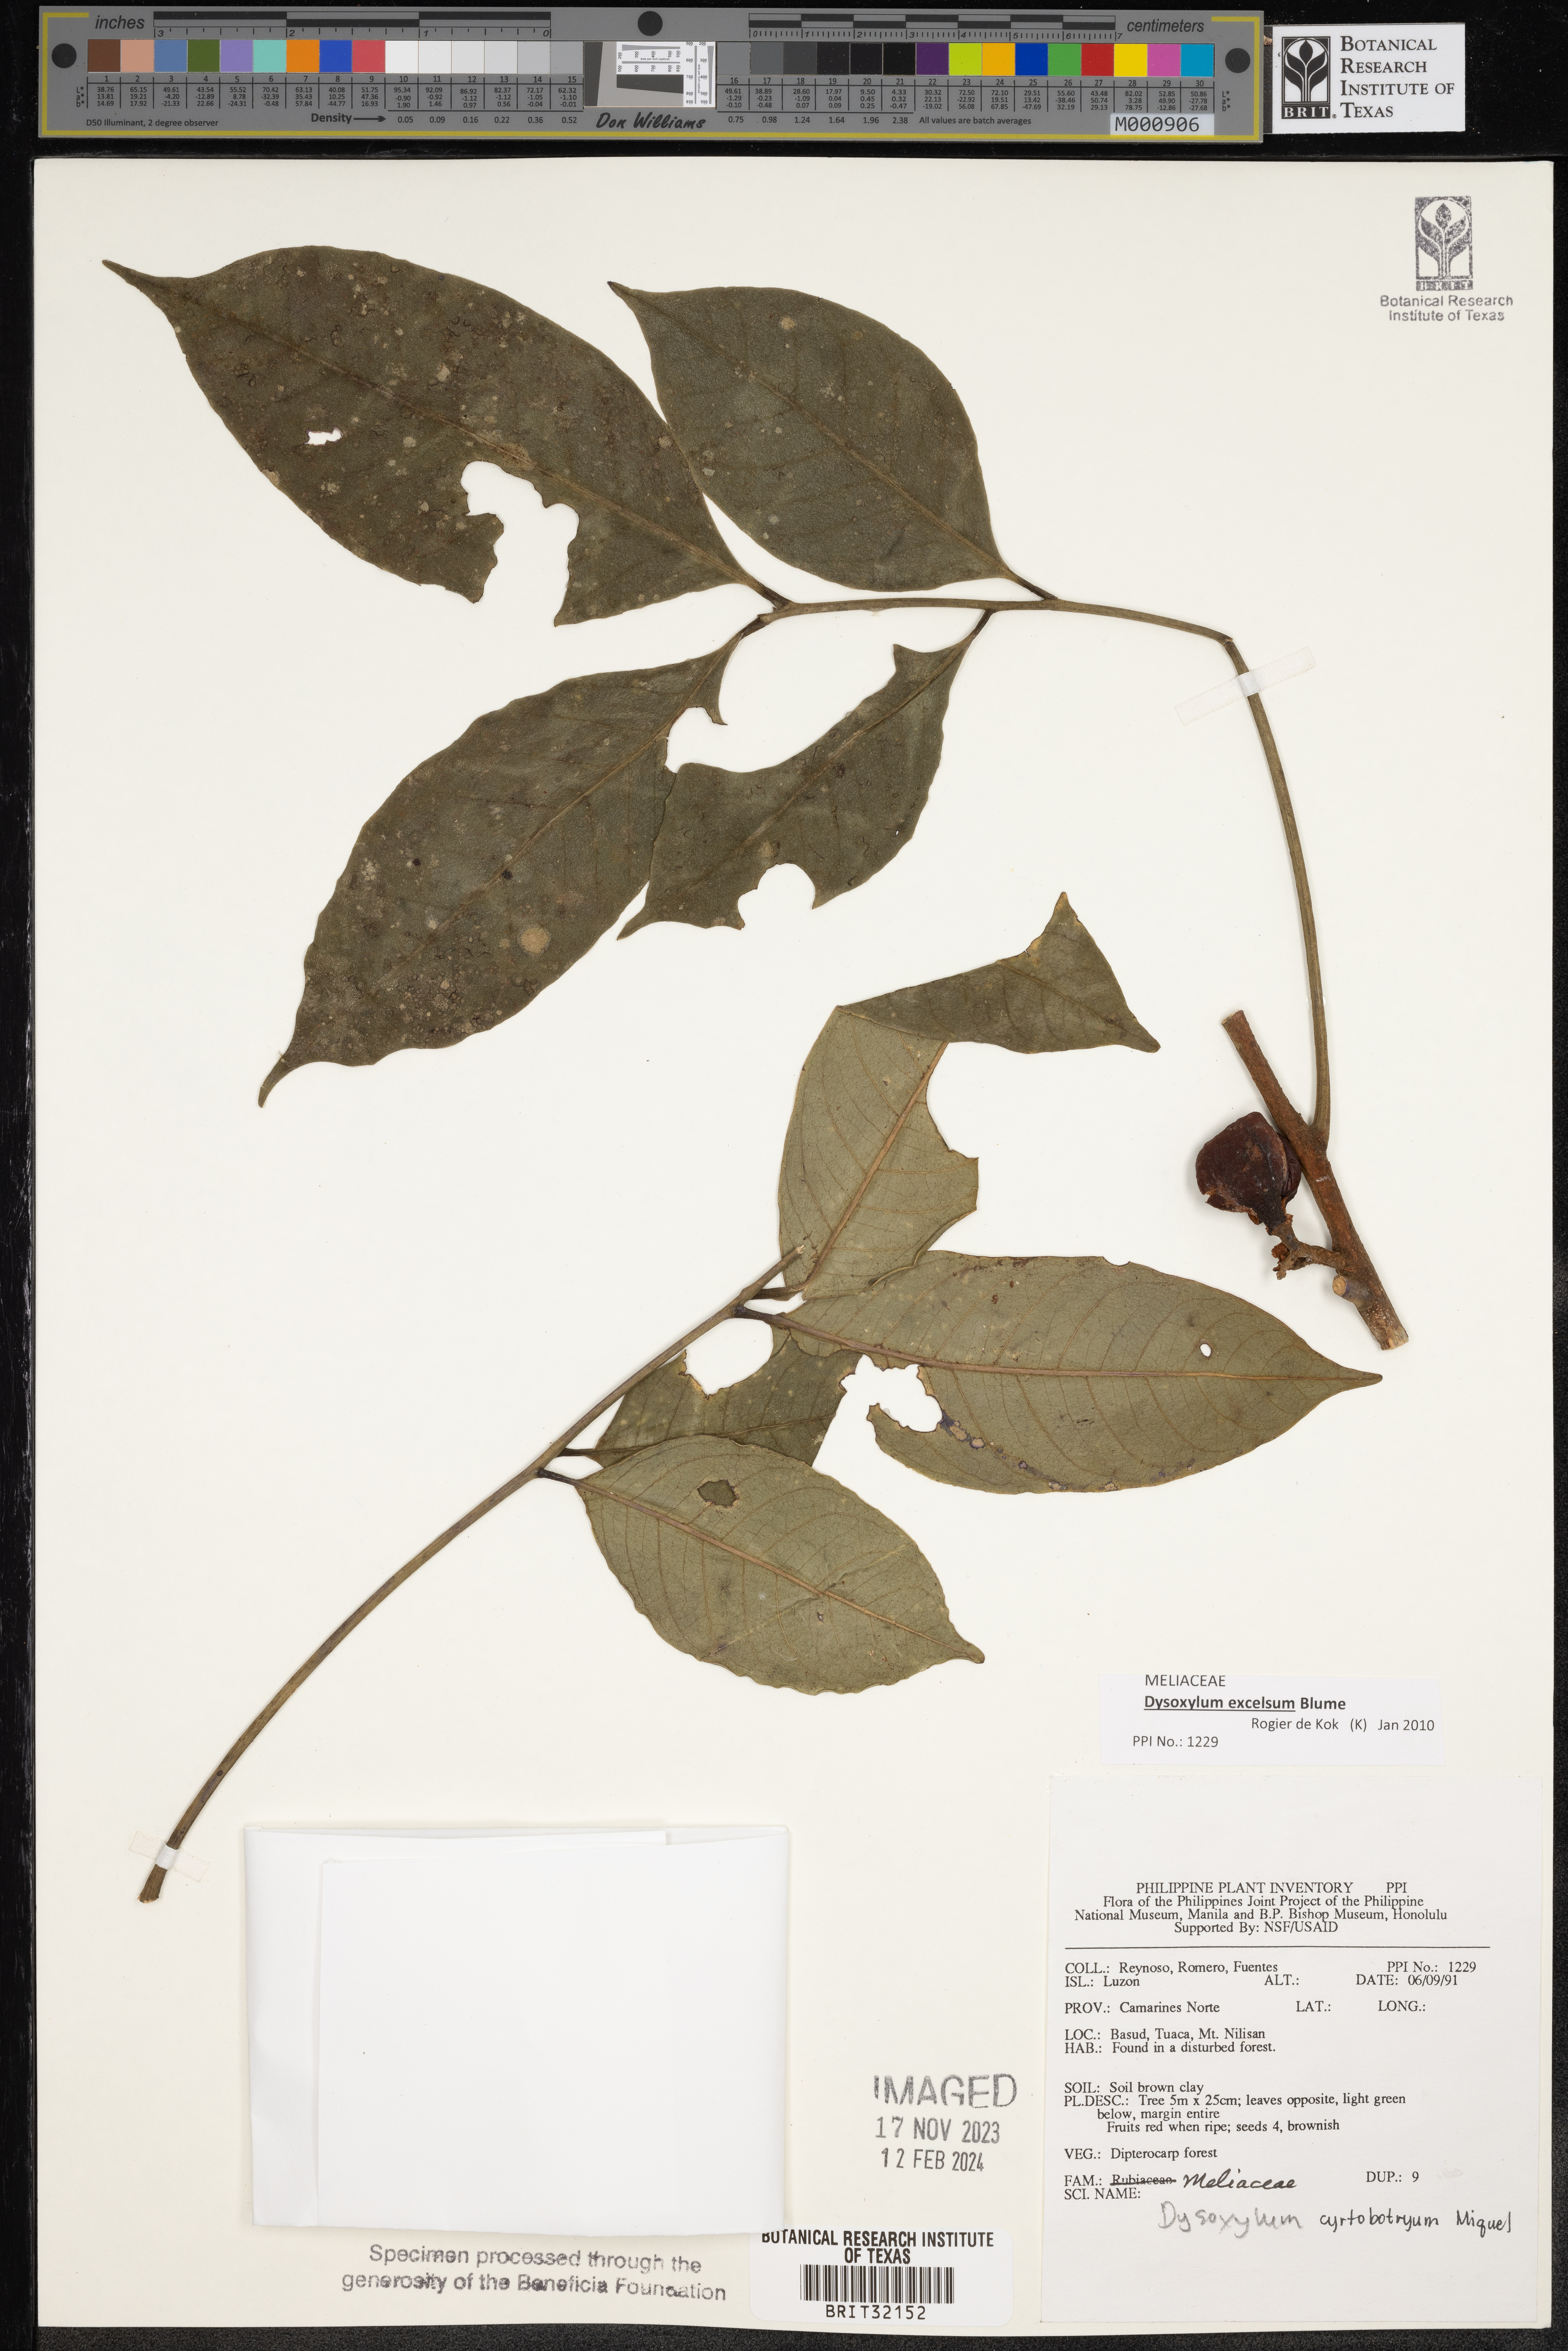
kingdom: Plantae
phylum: Tracheophyta
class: Magnoliopsida
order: Sapindales
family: Meliaceae
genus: Dysoxylum
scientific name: Dysoxylum cyrtobotryum
